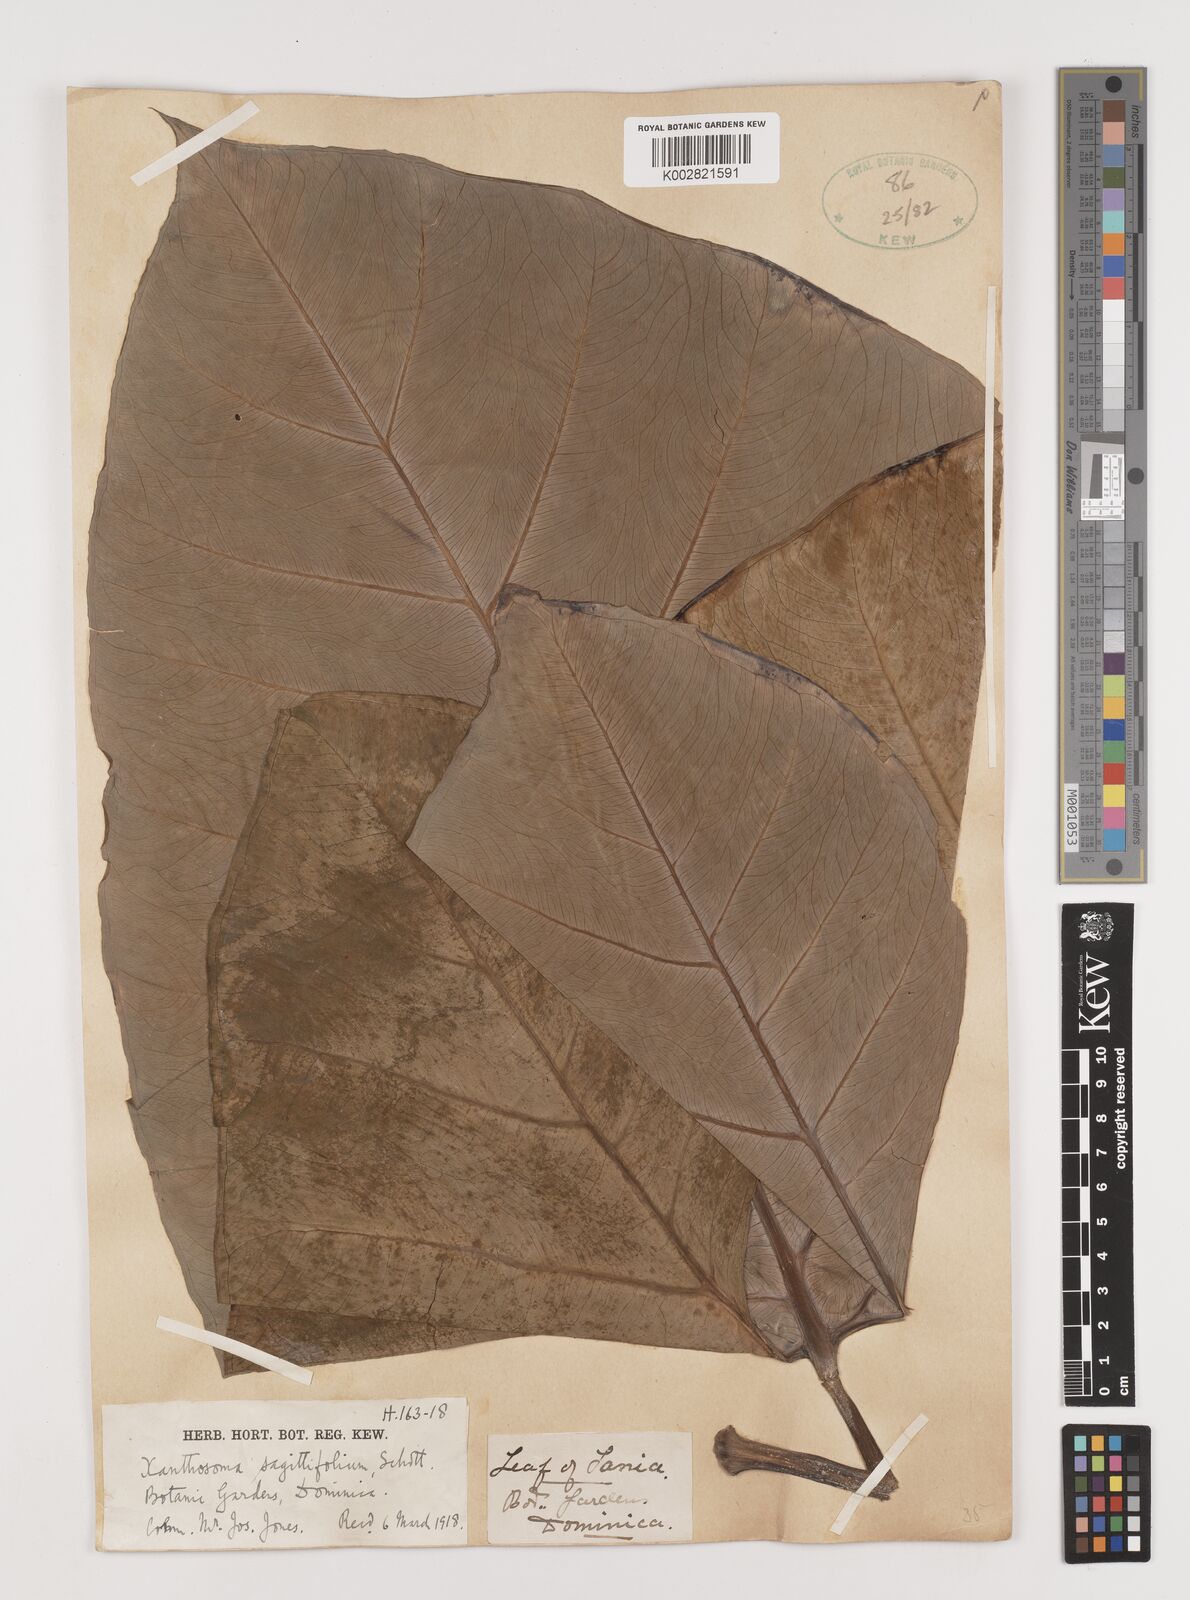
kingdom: Plantae
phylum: Tracheophyta
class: Liliopsida
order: Alismatales
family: Araceae
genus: Xanthosoma
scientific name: Xanthosoma sagittifolium
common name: Arrowleaf elephant's ear
